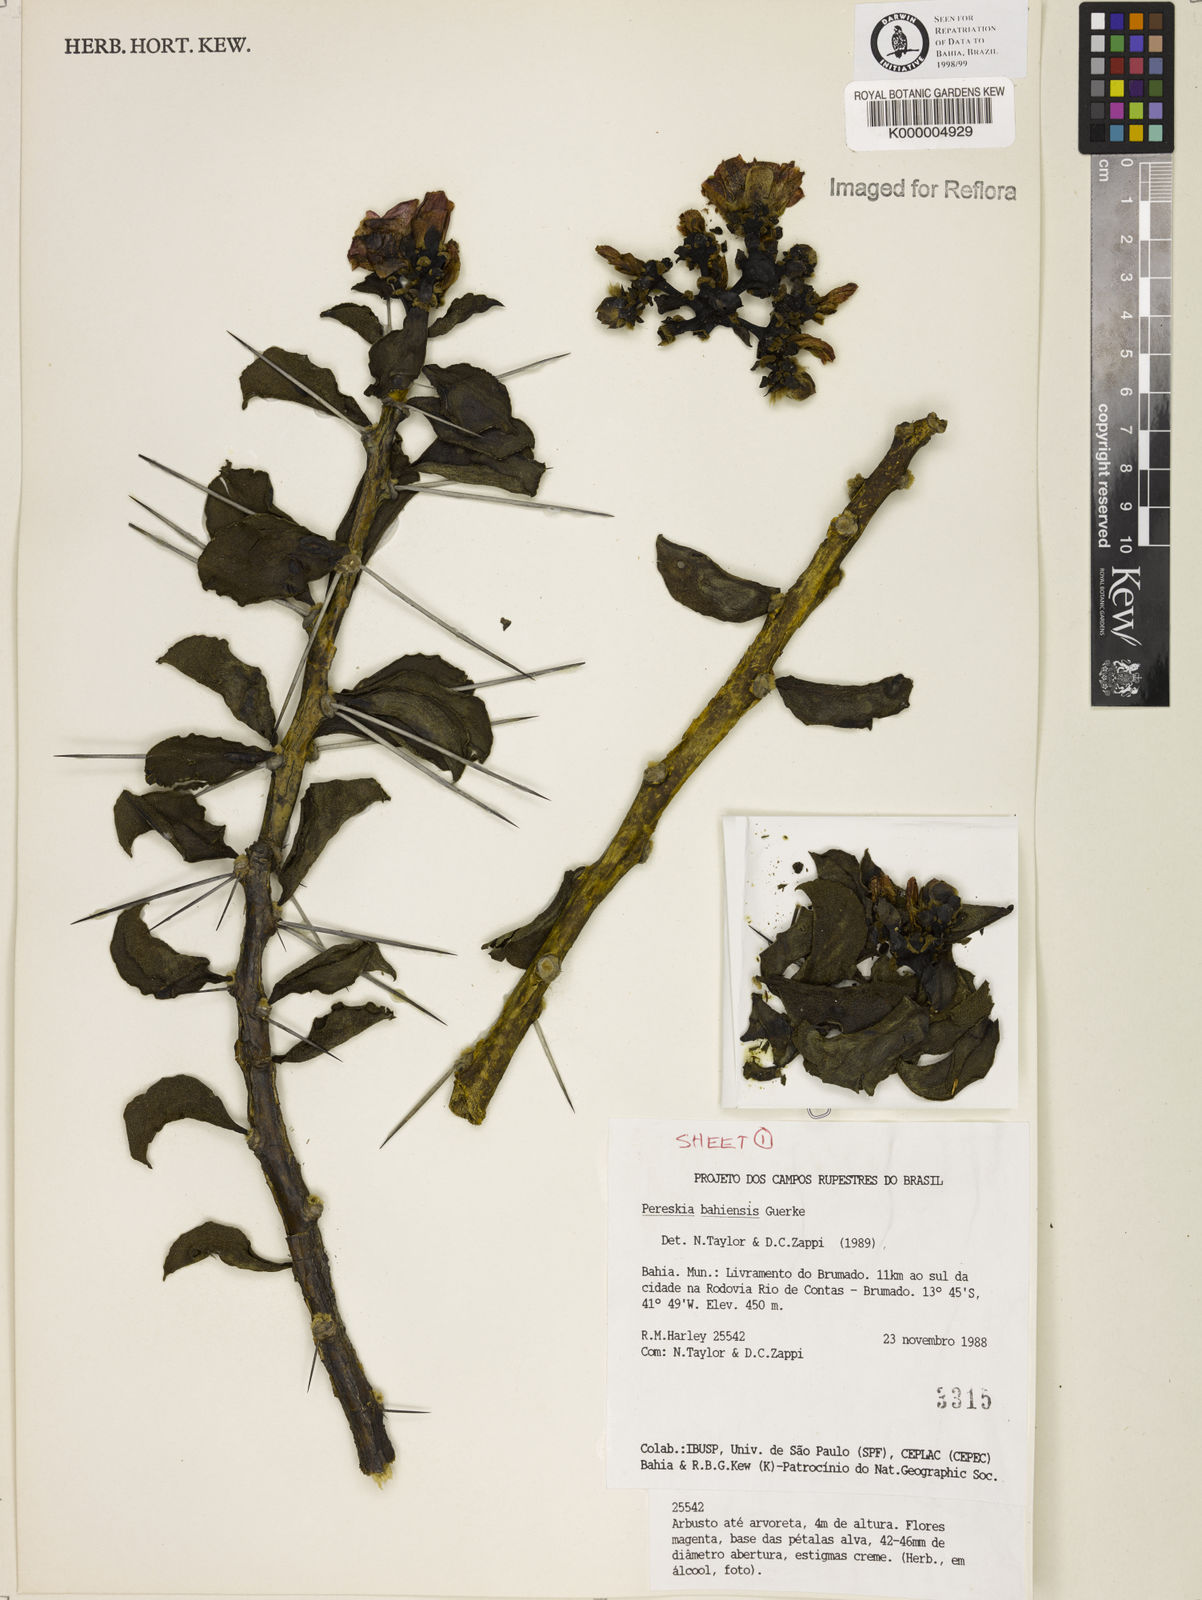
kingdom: Plantae
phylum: Tracheophyta
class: Magnoliopsida
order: Caryophyllales
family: Cactaceae
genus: Pereskia
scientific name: Pereskia
